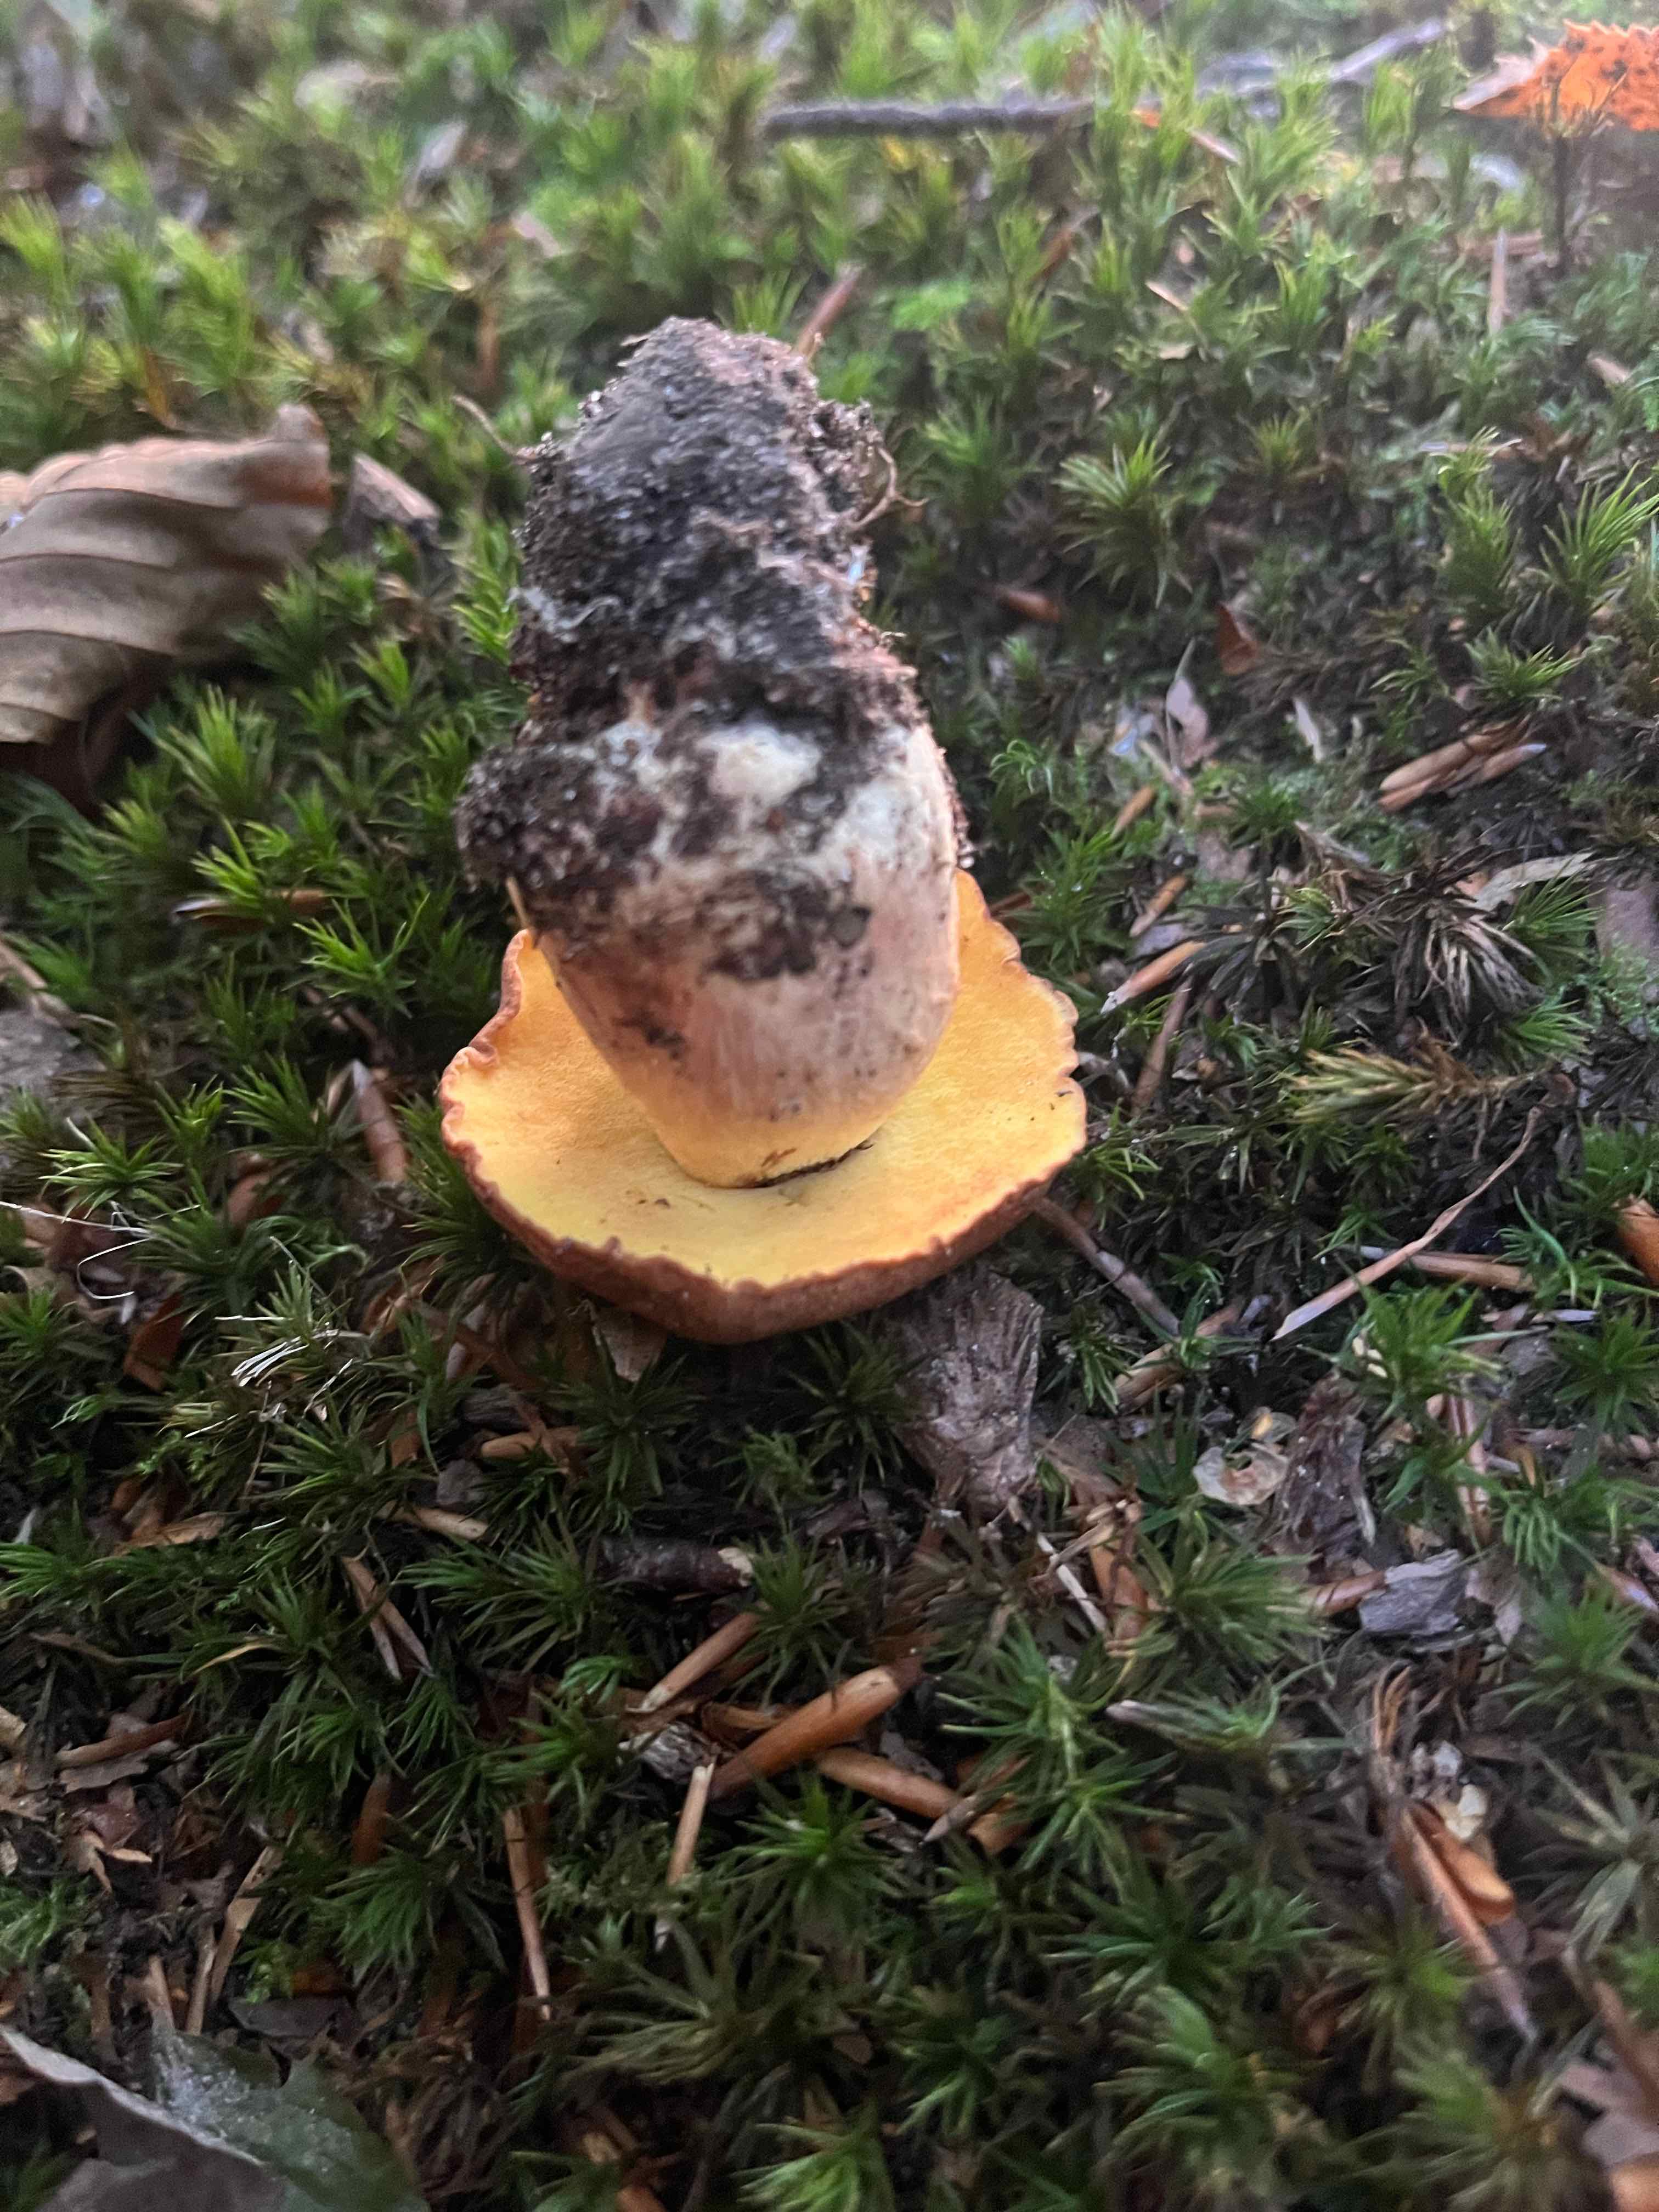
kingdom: Fungi
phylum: Basidiomycota
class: Agaricomycetes
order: Boletales
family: Boletaceae
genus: Butyriboletus
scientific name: Butyriboletus appendiculatus
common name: tenstokket rørhat
